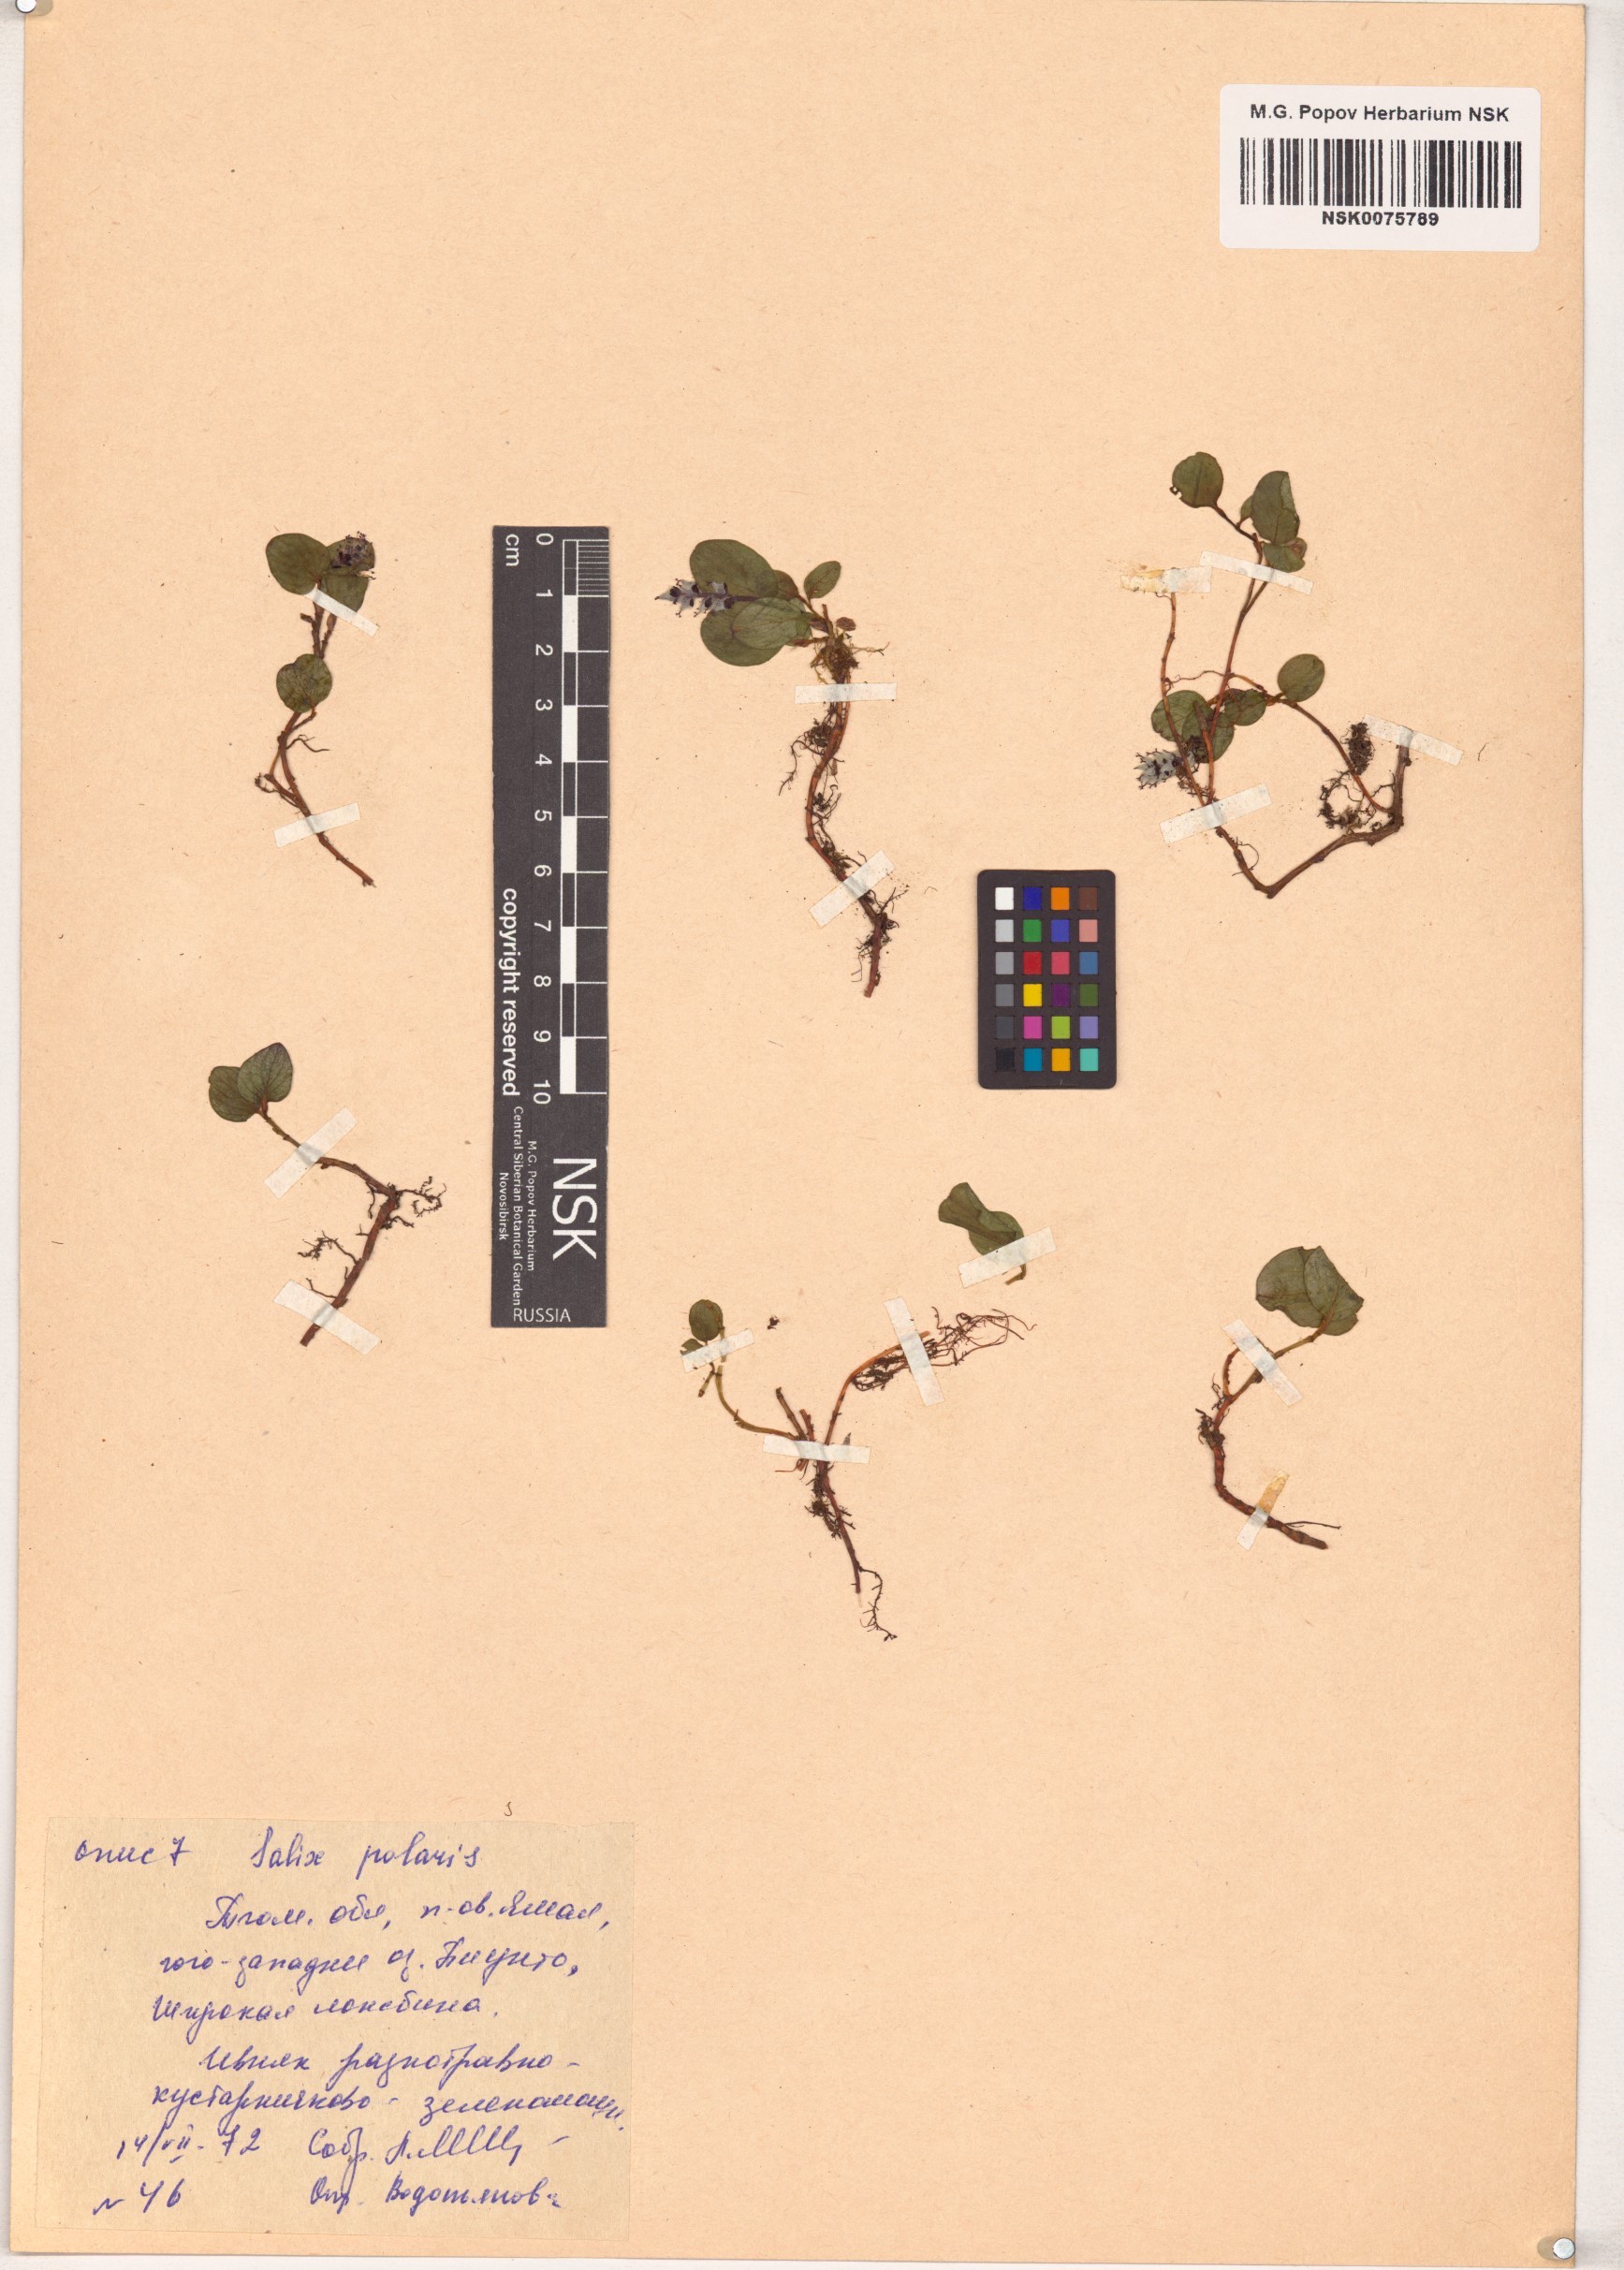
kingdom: Plantae
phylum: Tracheophyta
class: Magnoliopsida
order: Malpighiales
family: Salicaceae
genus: Salix
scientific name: Salix polaris
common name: Polar willow
